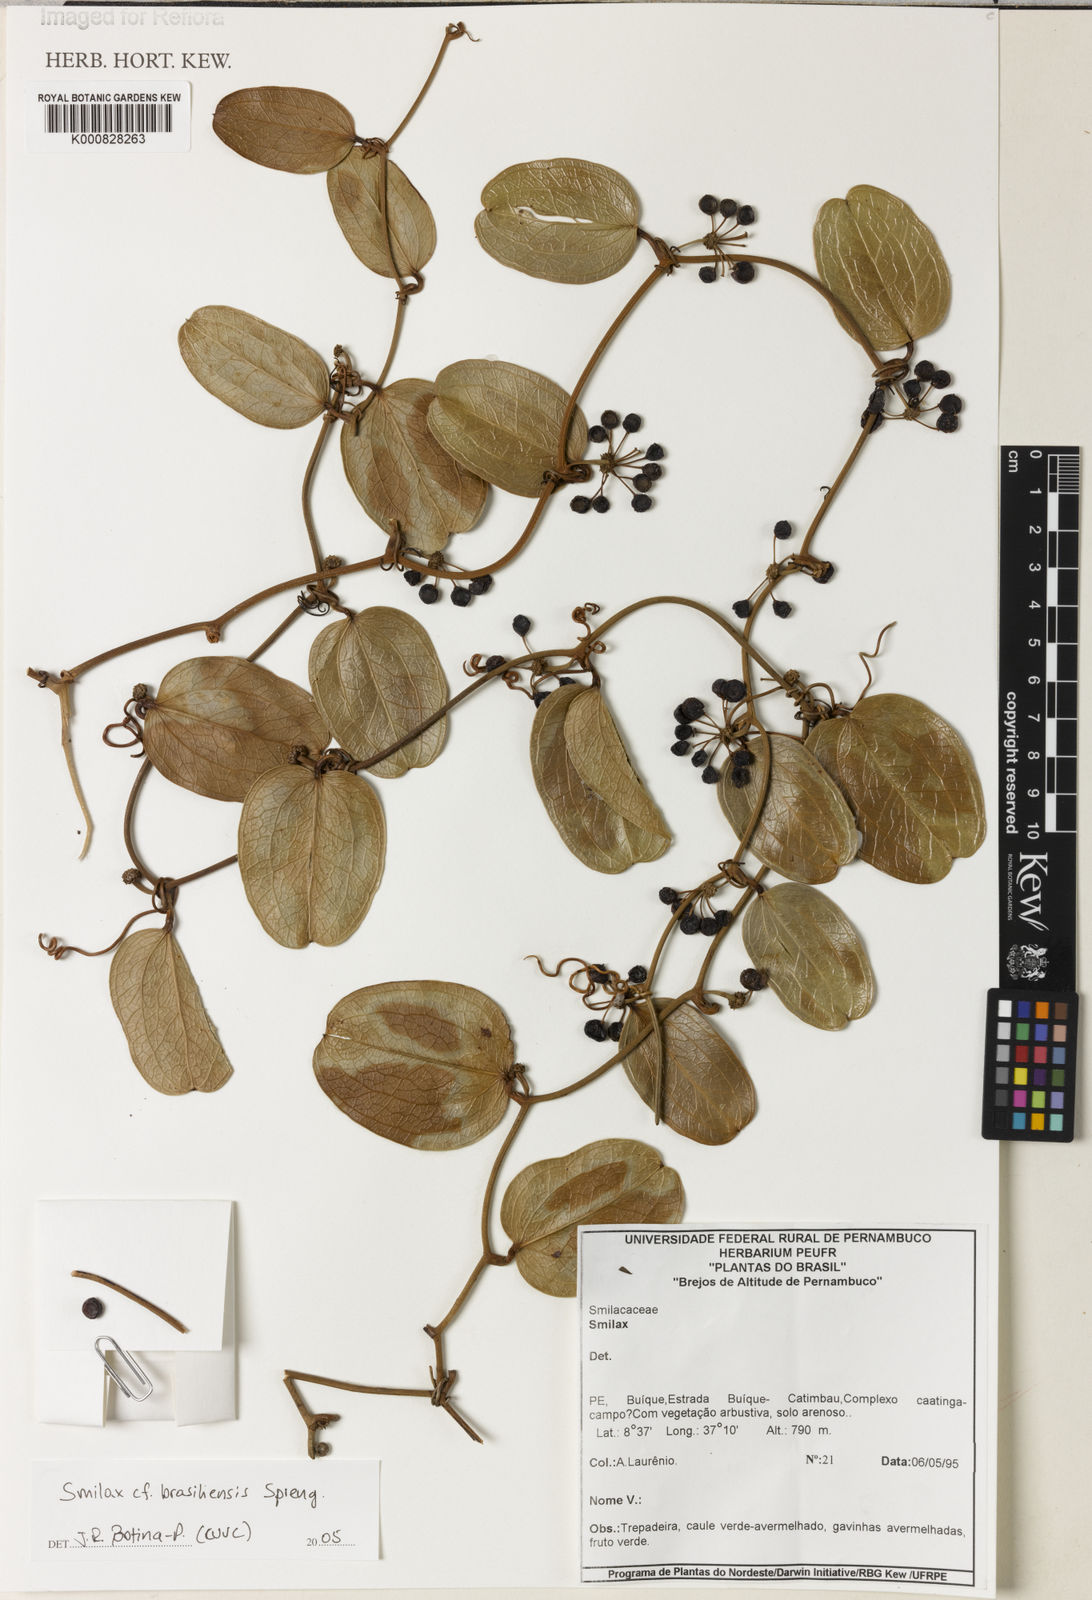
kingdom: Plantae
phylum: Tracheophyta
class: Liliopsida
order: Liliales
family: Smilacaceae
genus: Smilax
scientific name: Smilax brasiliensis
